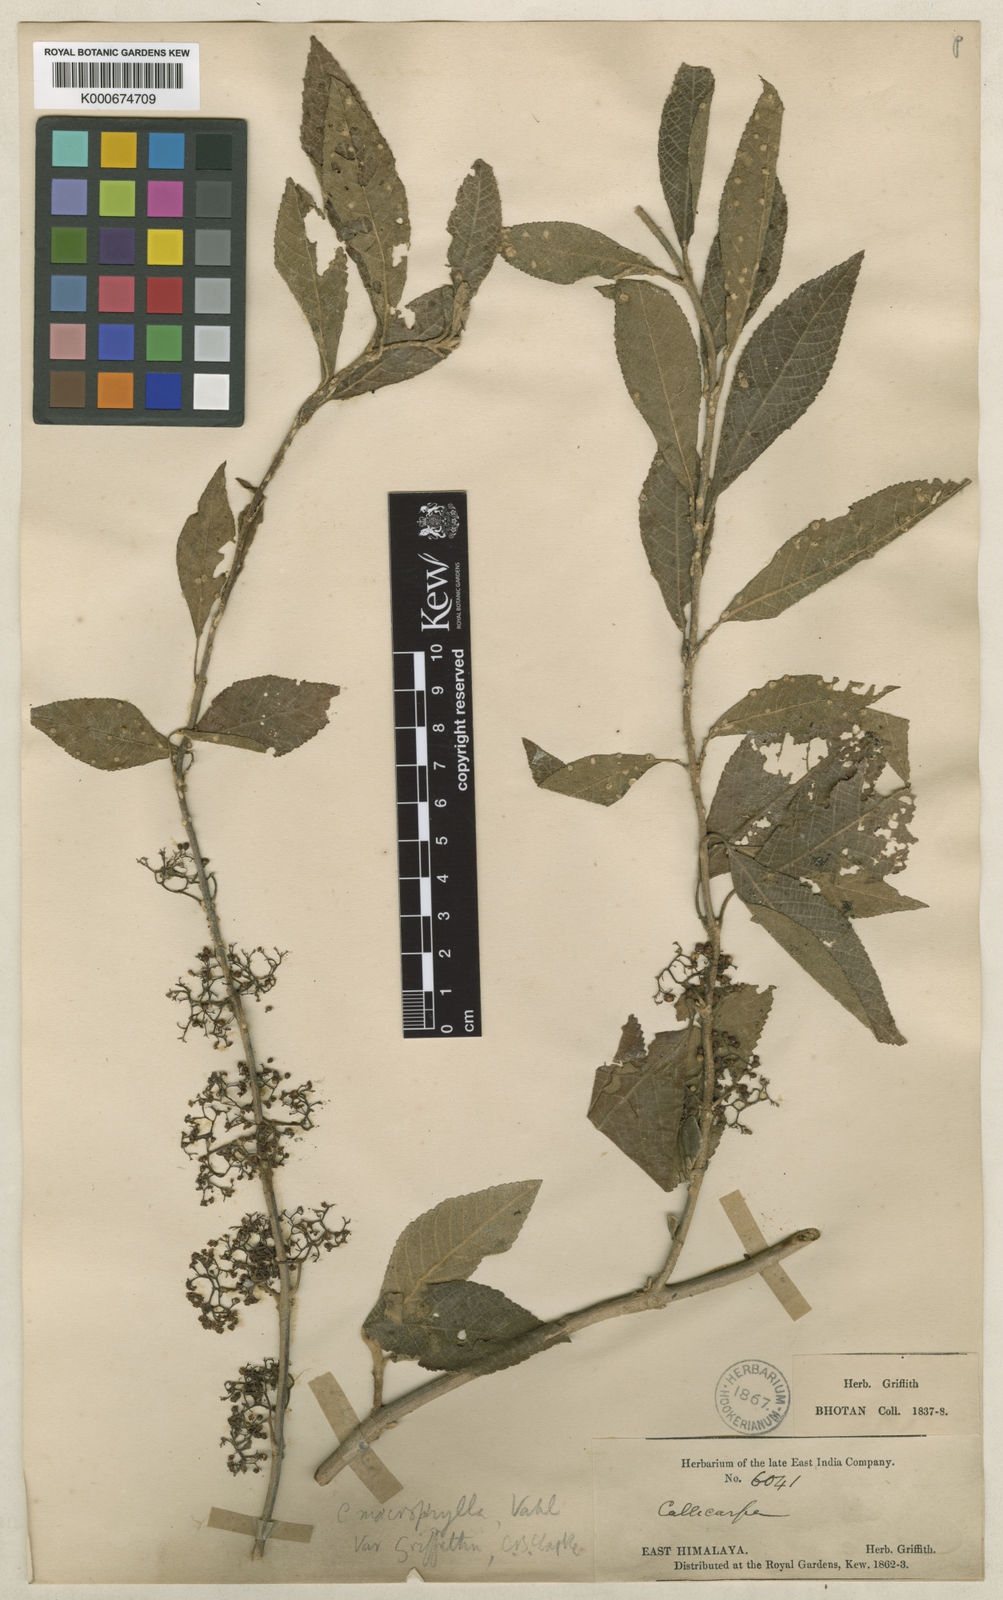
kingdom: Plantae
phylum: Tracheophyta
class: Magnoliopsida
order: Lamiales
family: Lamiaceae
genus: Callicarpa
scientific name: Callicarpa macrophylla
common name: Urn-fruit beauty-berry
